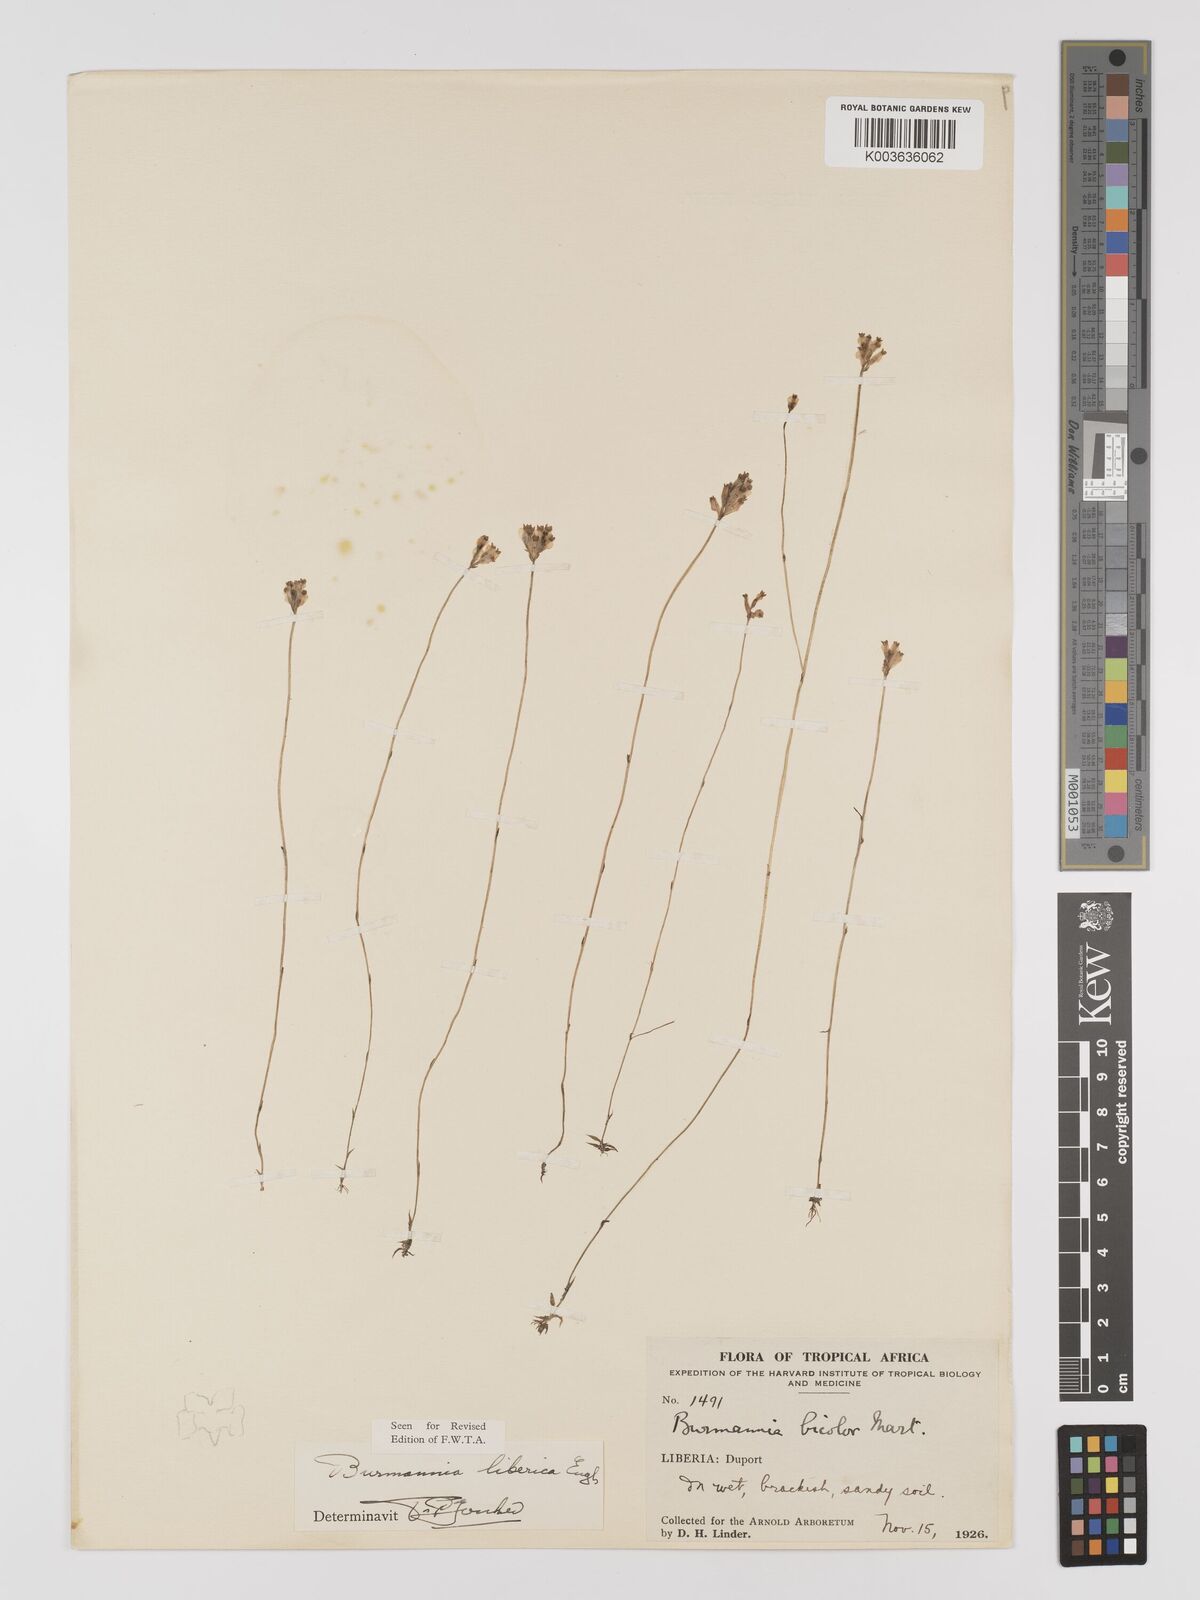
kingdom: Plantae
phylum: Tracheophyta
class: Liliopsida
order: Dioscoreales
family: Burmanniaceae
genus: Burmannia
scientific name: Burmannia madagascariensis
